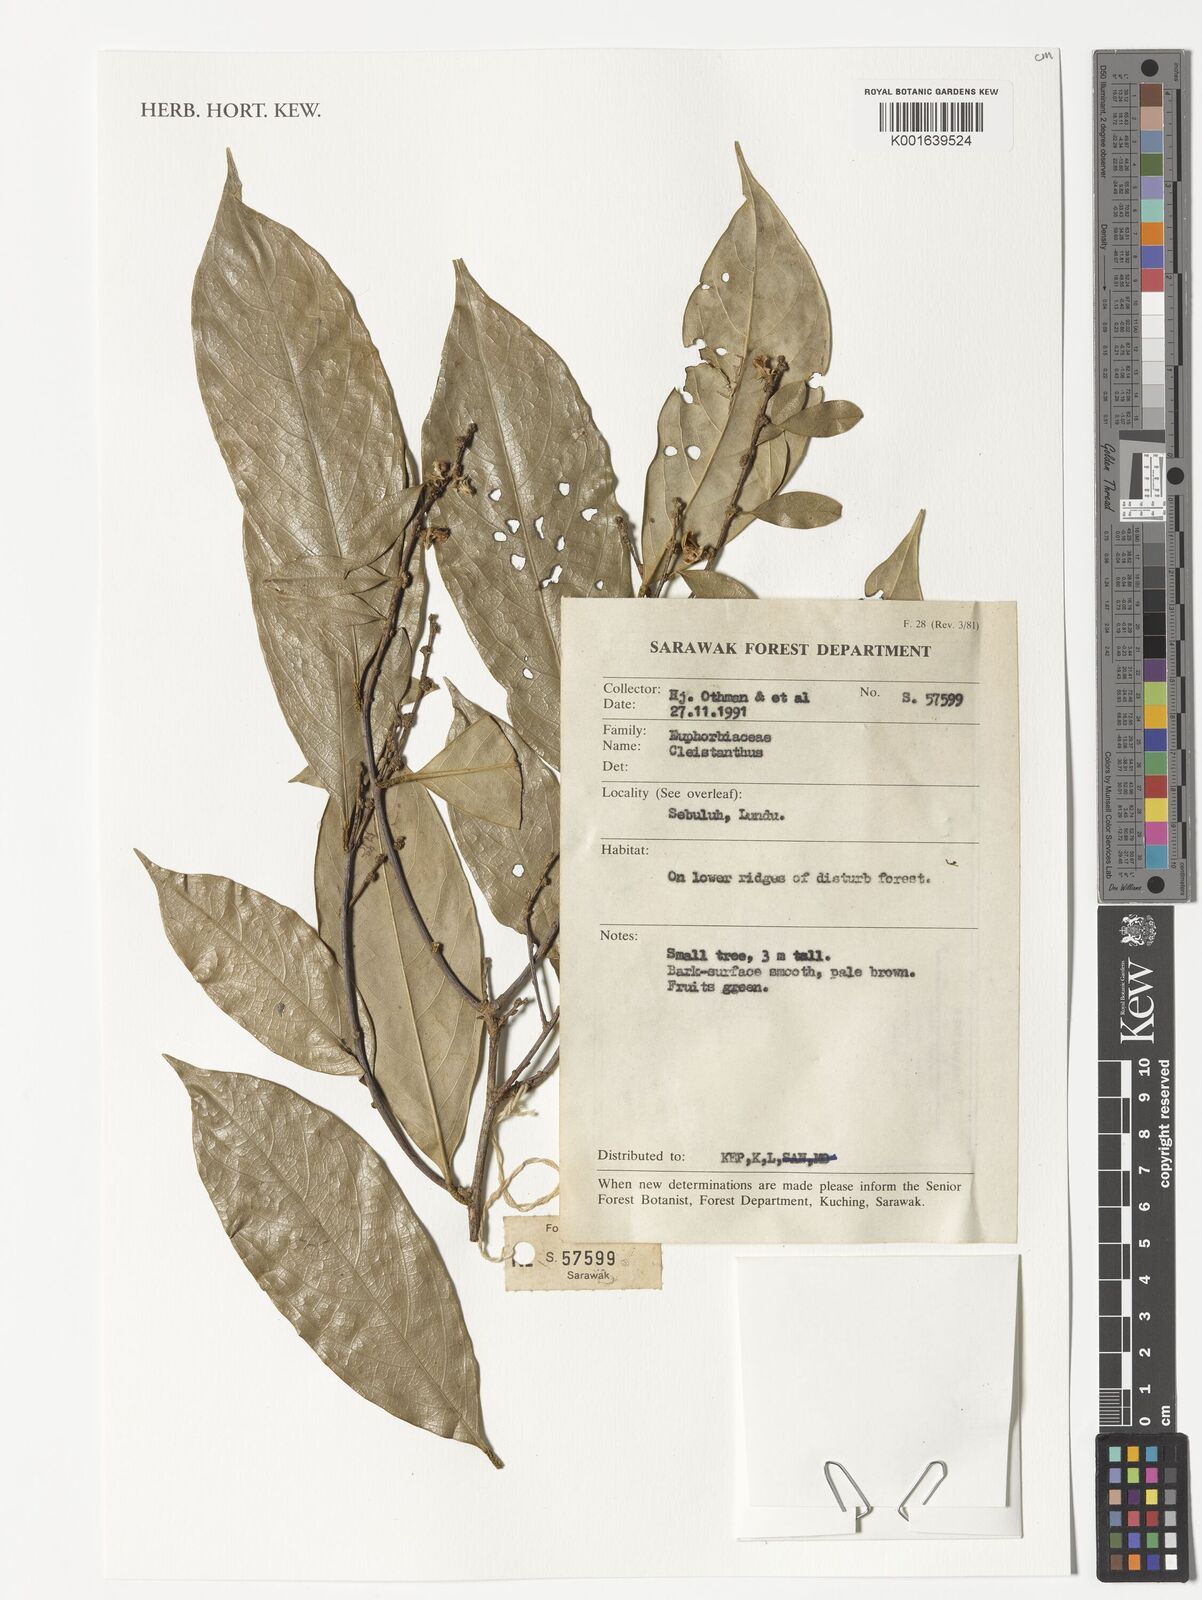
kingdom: Plantae
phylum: Tracheophyta
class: Magnoliopsida
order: Malpighiales
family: Phyllanthaceae
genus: Cleistanthus
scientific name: Cleistanthus
